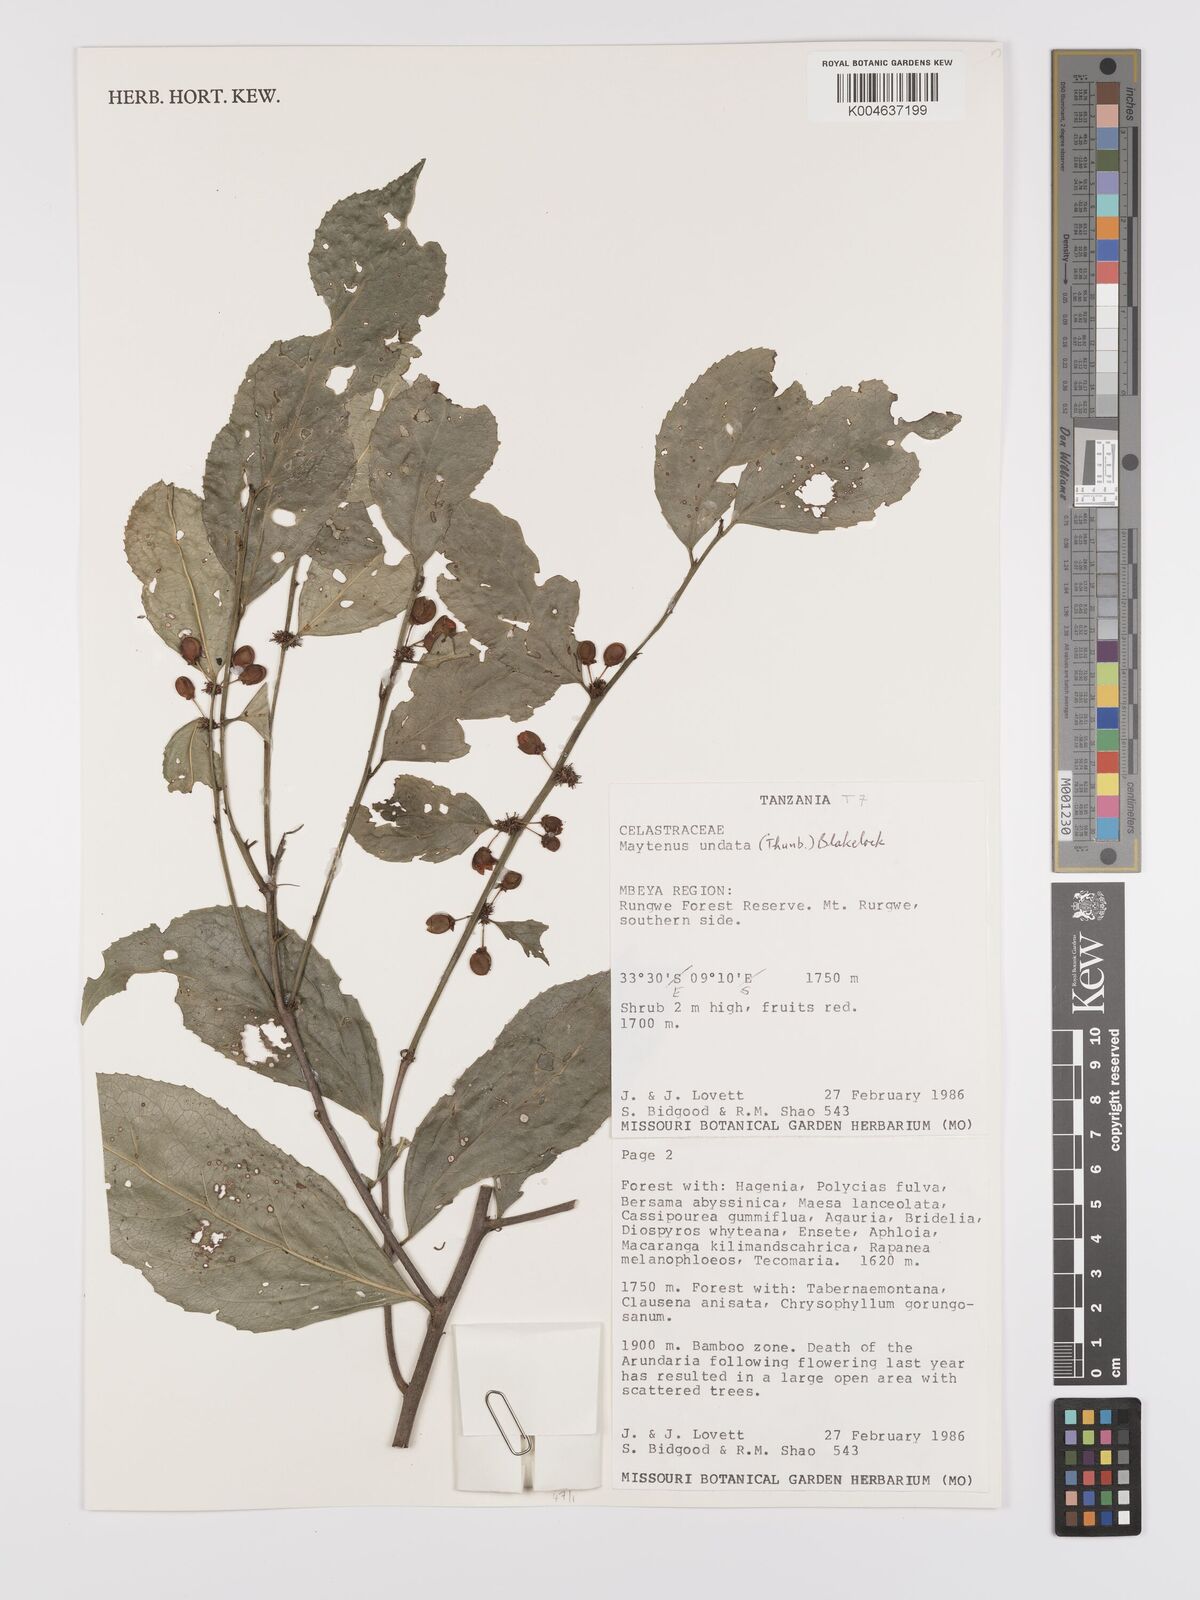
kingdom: Plantae
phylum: Tracheophyta
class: Magnoliopsida
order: Celastrales
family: Celastraceae
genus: Gymnosporia
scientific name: Gymnosporia undata
